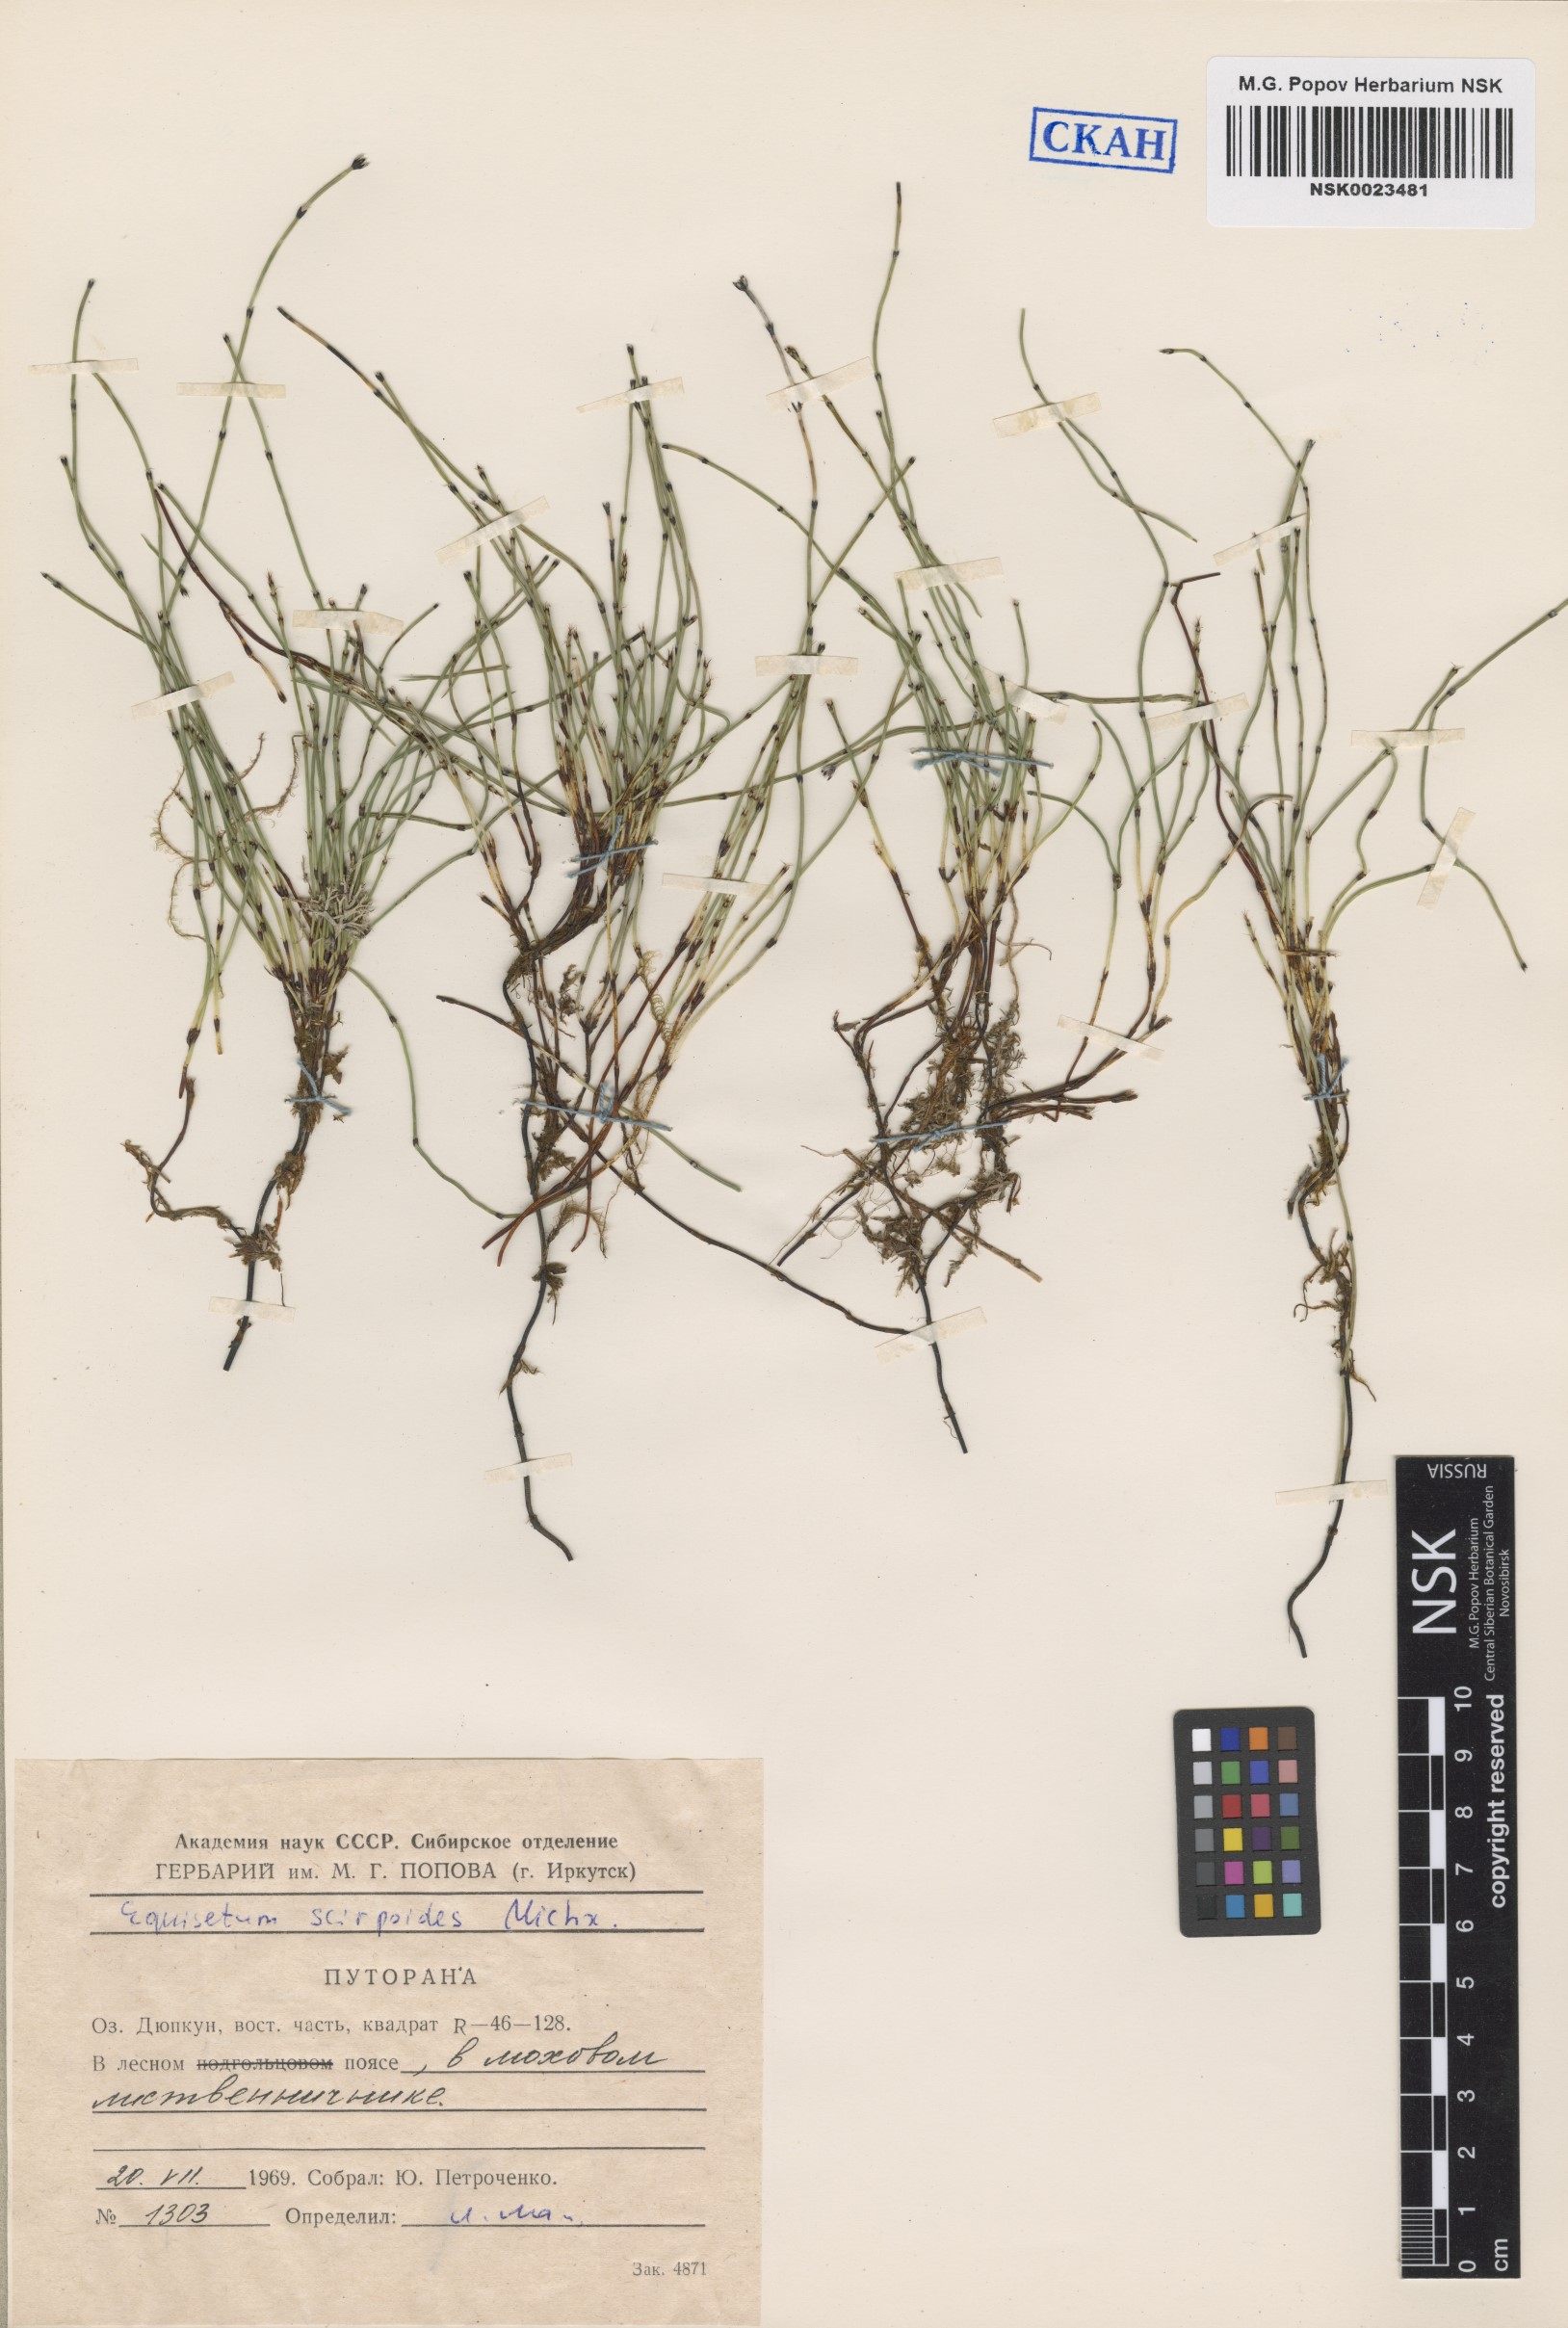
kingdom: Plantae
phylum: Tracheophyta
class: Polypodiopsida
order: Equisetales
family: Equisetaceae
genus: Equisetum
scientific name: Equisetum scirpoides
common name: Delicate horsetail
